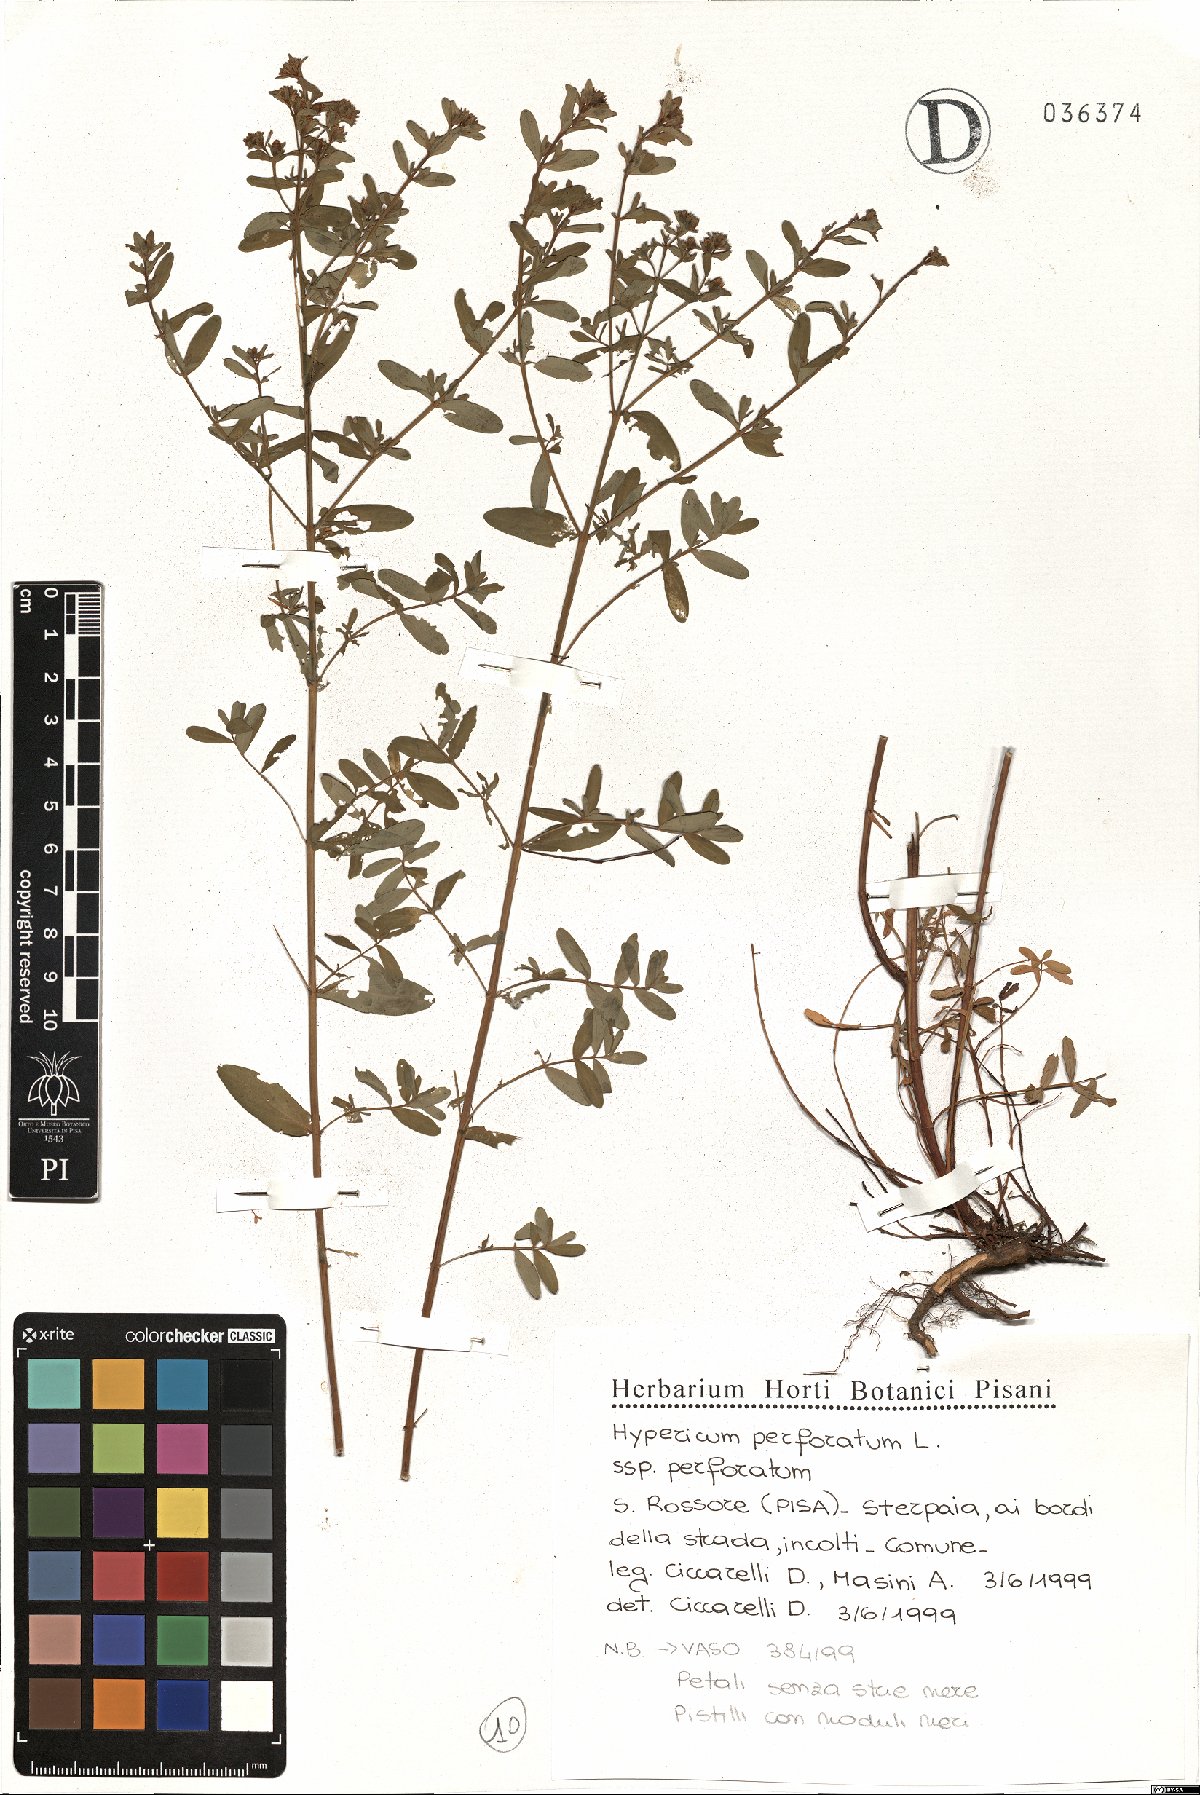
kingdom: Plantae
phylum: Tracheophyta
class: Magnoliopsida
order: Malpighiales
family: Hypericaceae
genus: Hypericum
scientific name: Hypericum perforatum
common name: Common st. johnswort
